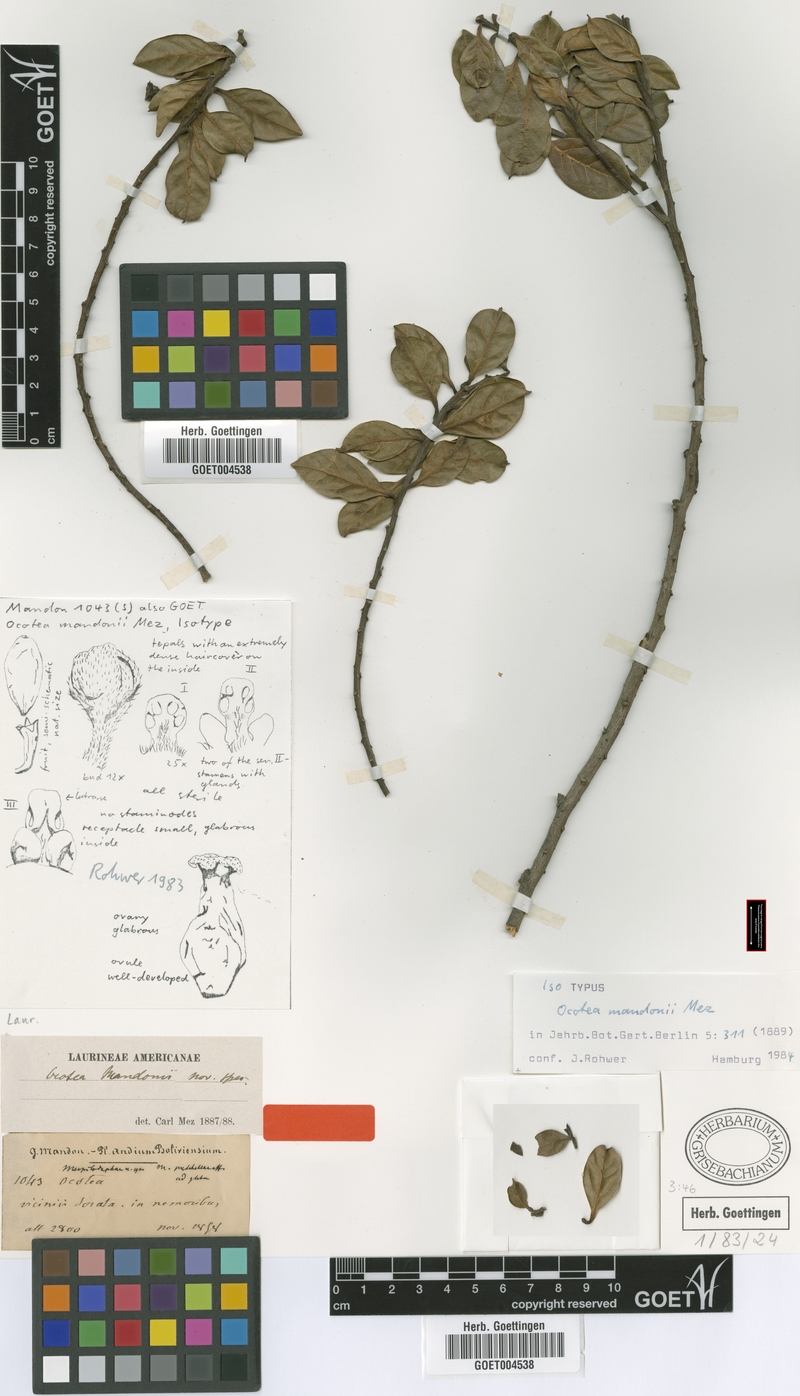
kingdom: Plantae
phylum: Tracheophyta
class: Magnoliopsida
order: Laurales
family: Lauraceae
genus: Ocotea
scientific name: Ocotea mandonii
